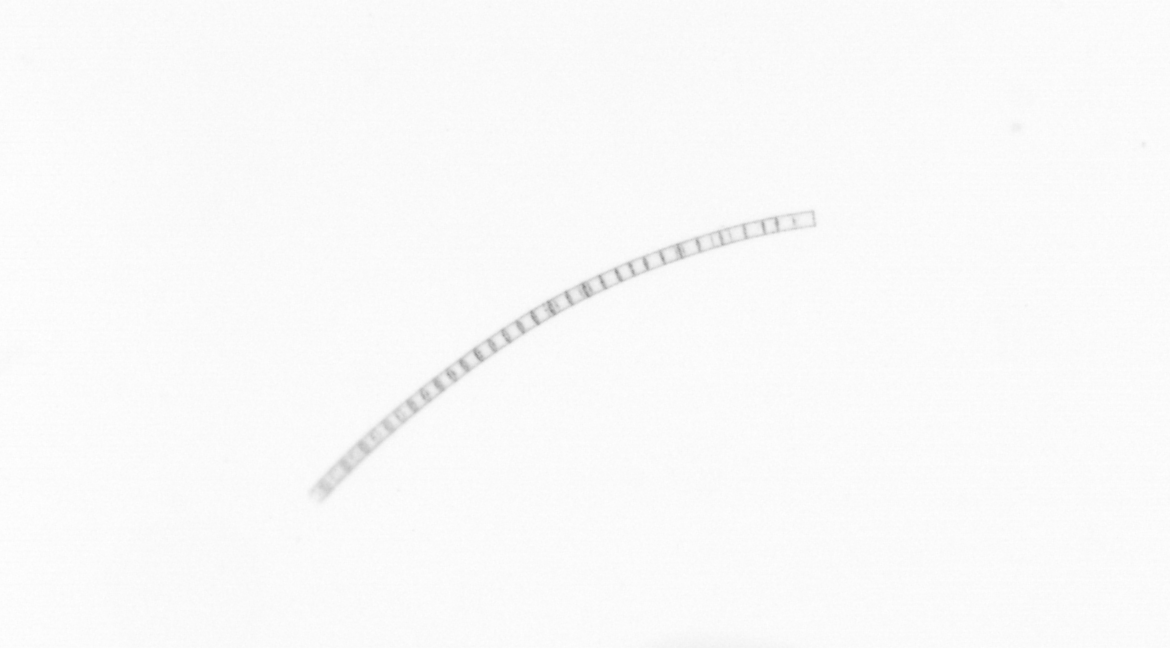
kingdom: Chromista
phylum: Ochrophyta
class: Bacillariophyceae
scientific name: Bacillariophyceae
